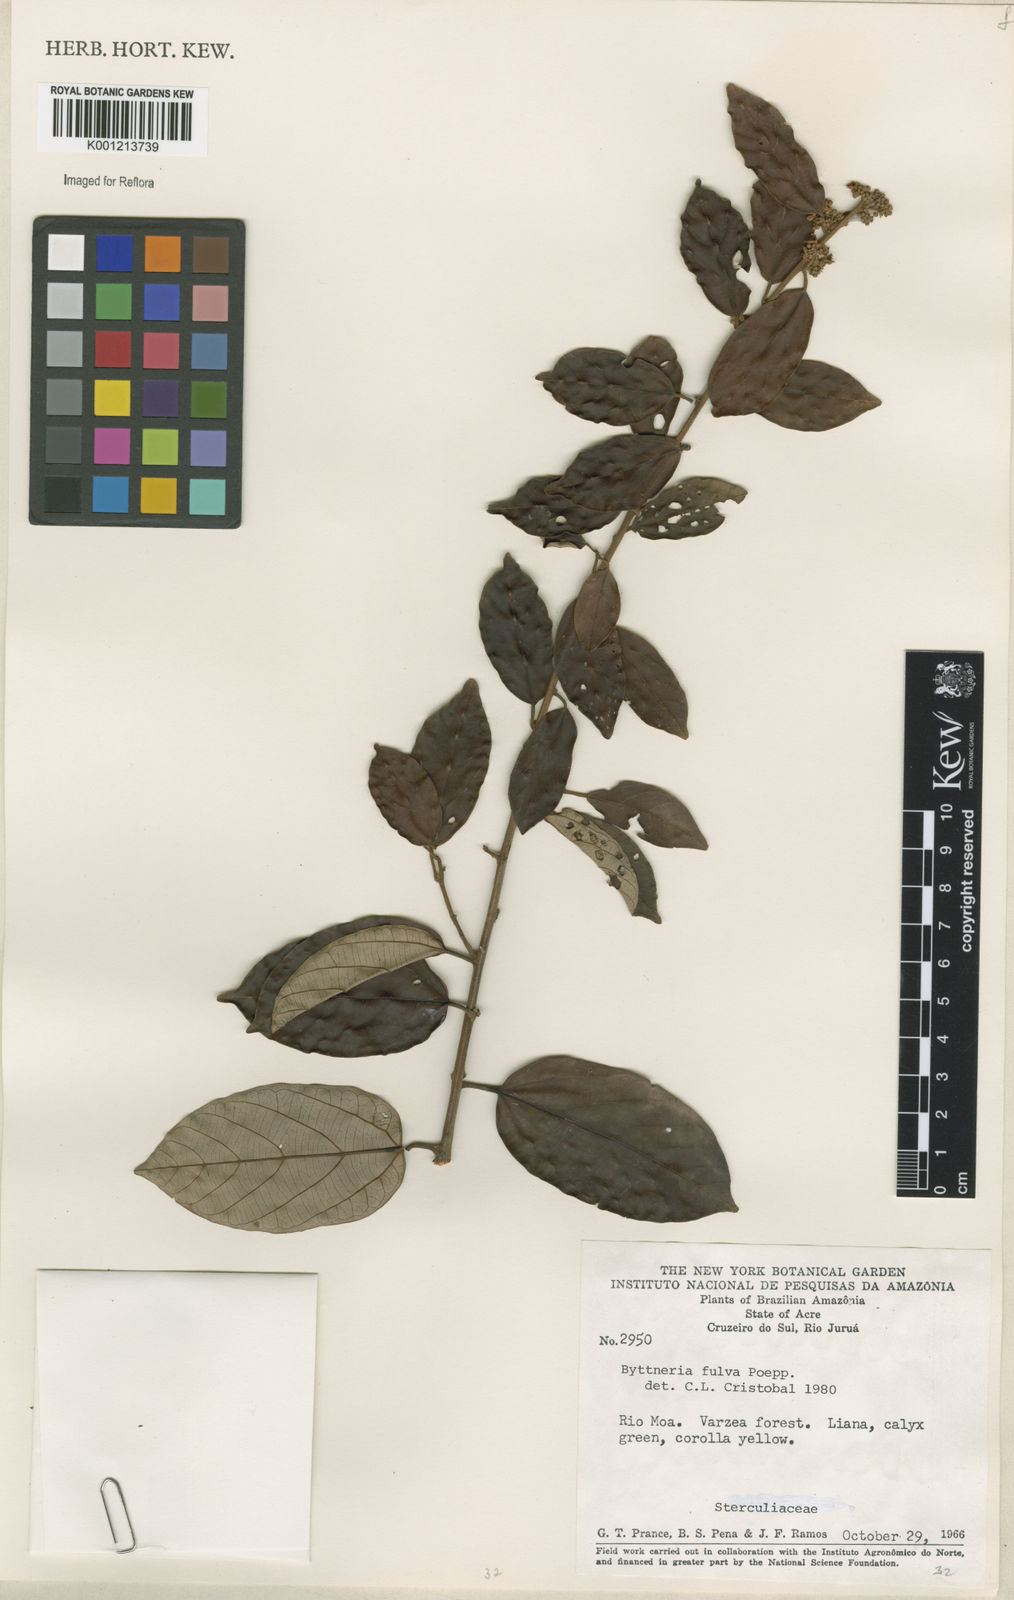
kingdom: Plantae
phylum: Tracheophyta
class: Magnoliopsida
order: Malvales
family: Malvaceae
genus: Byttneria
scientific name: Byttneria fulva
